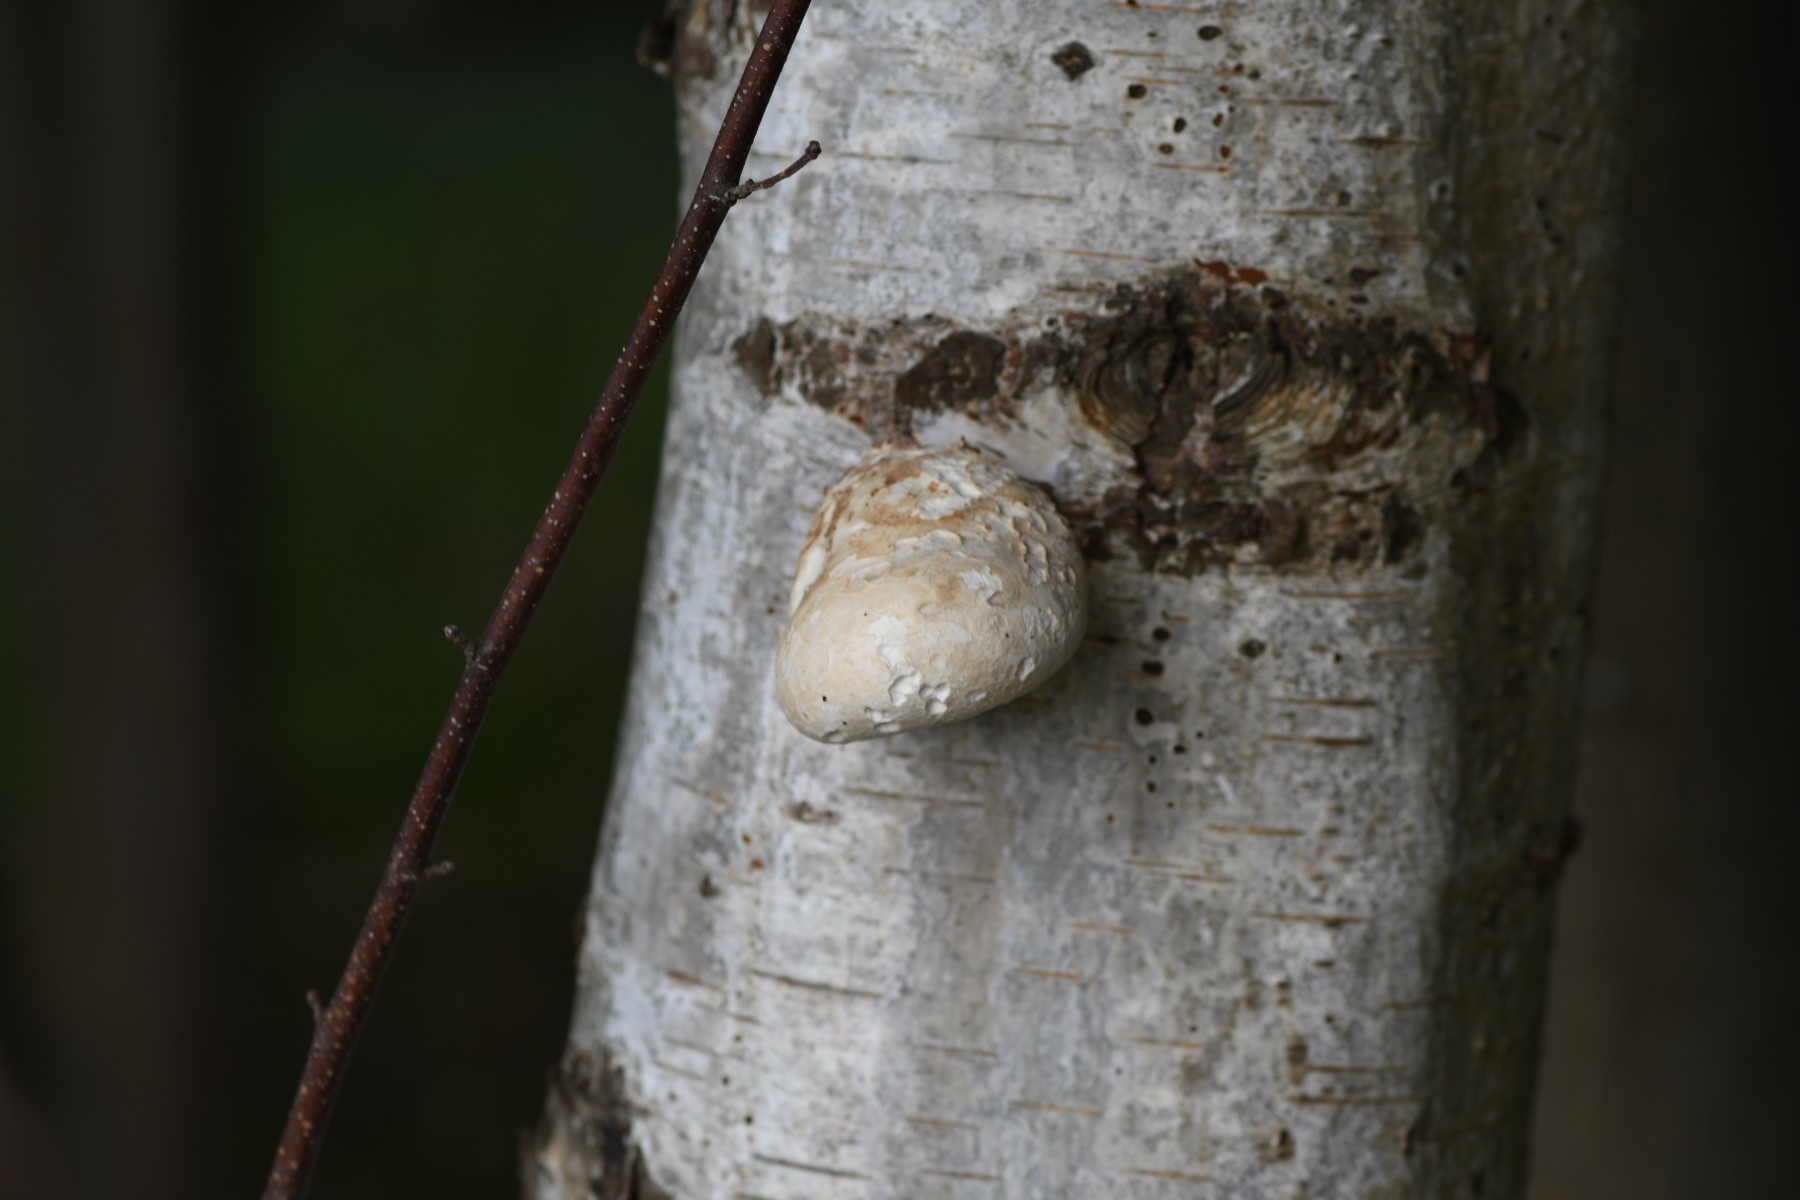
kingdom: Fungi
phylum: Basidiomycota
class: Agaricomycetes
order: Polyporales
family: Fomitopsidaceae
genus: Fomitopsis
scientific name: Fomitopsis betulina
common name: birkeporesvamp
